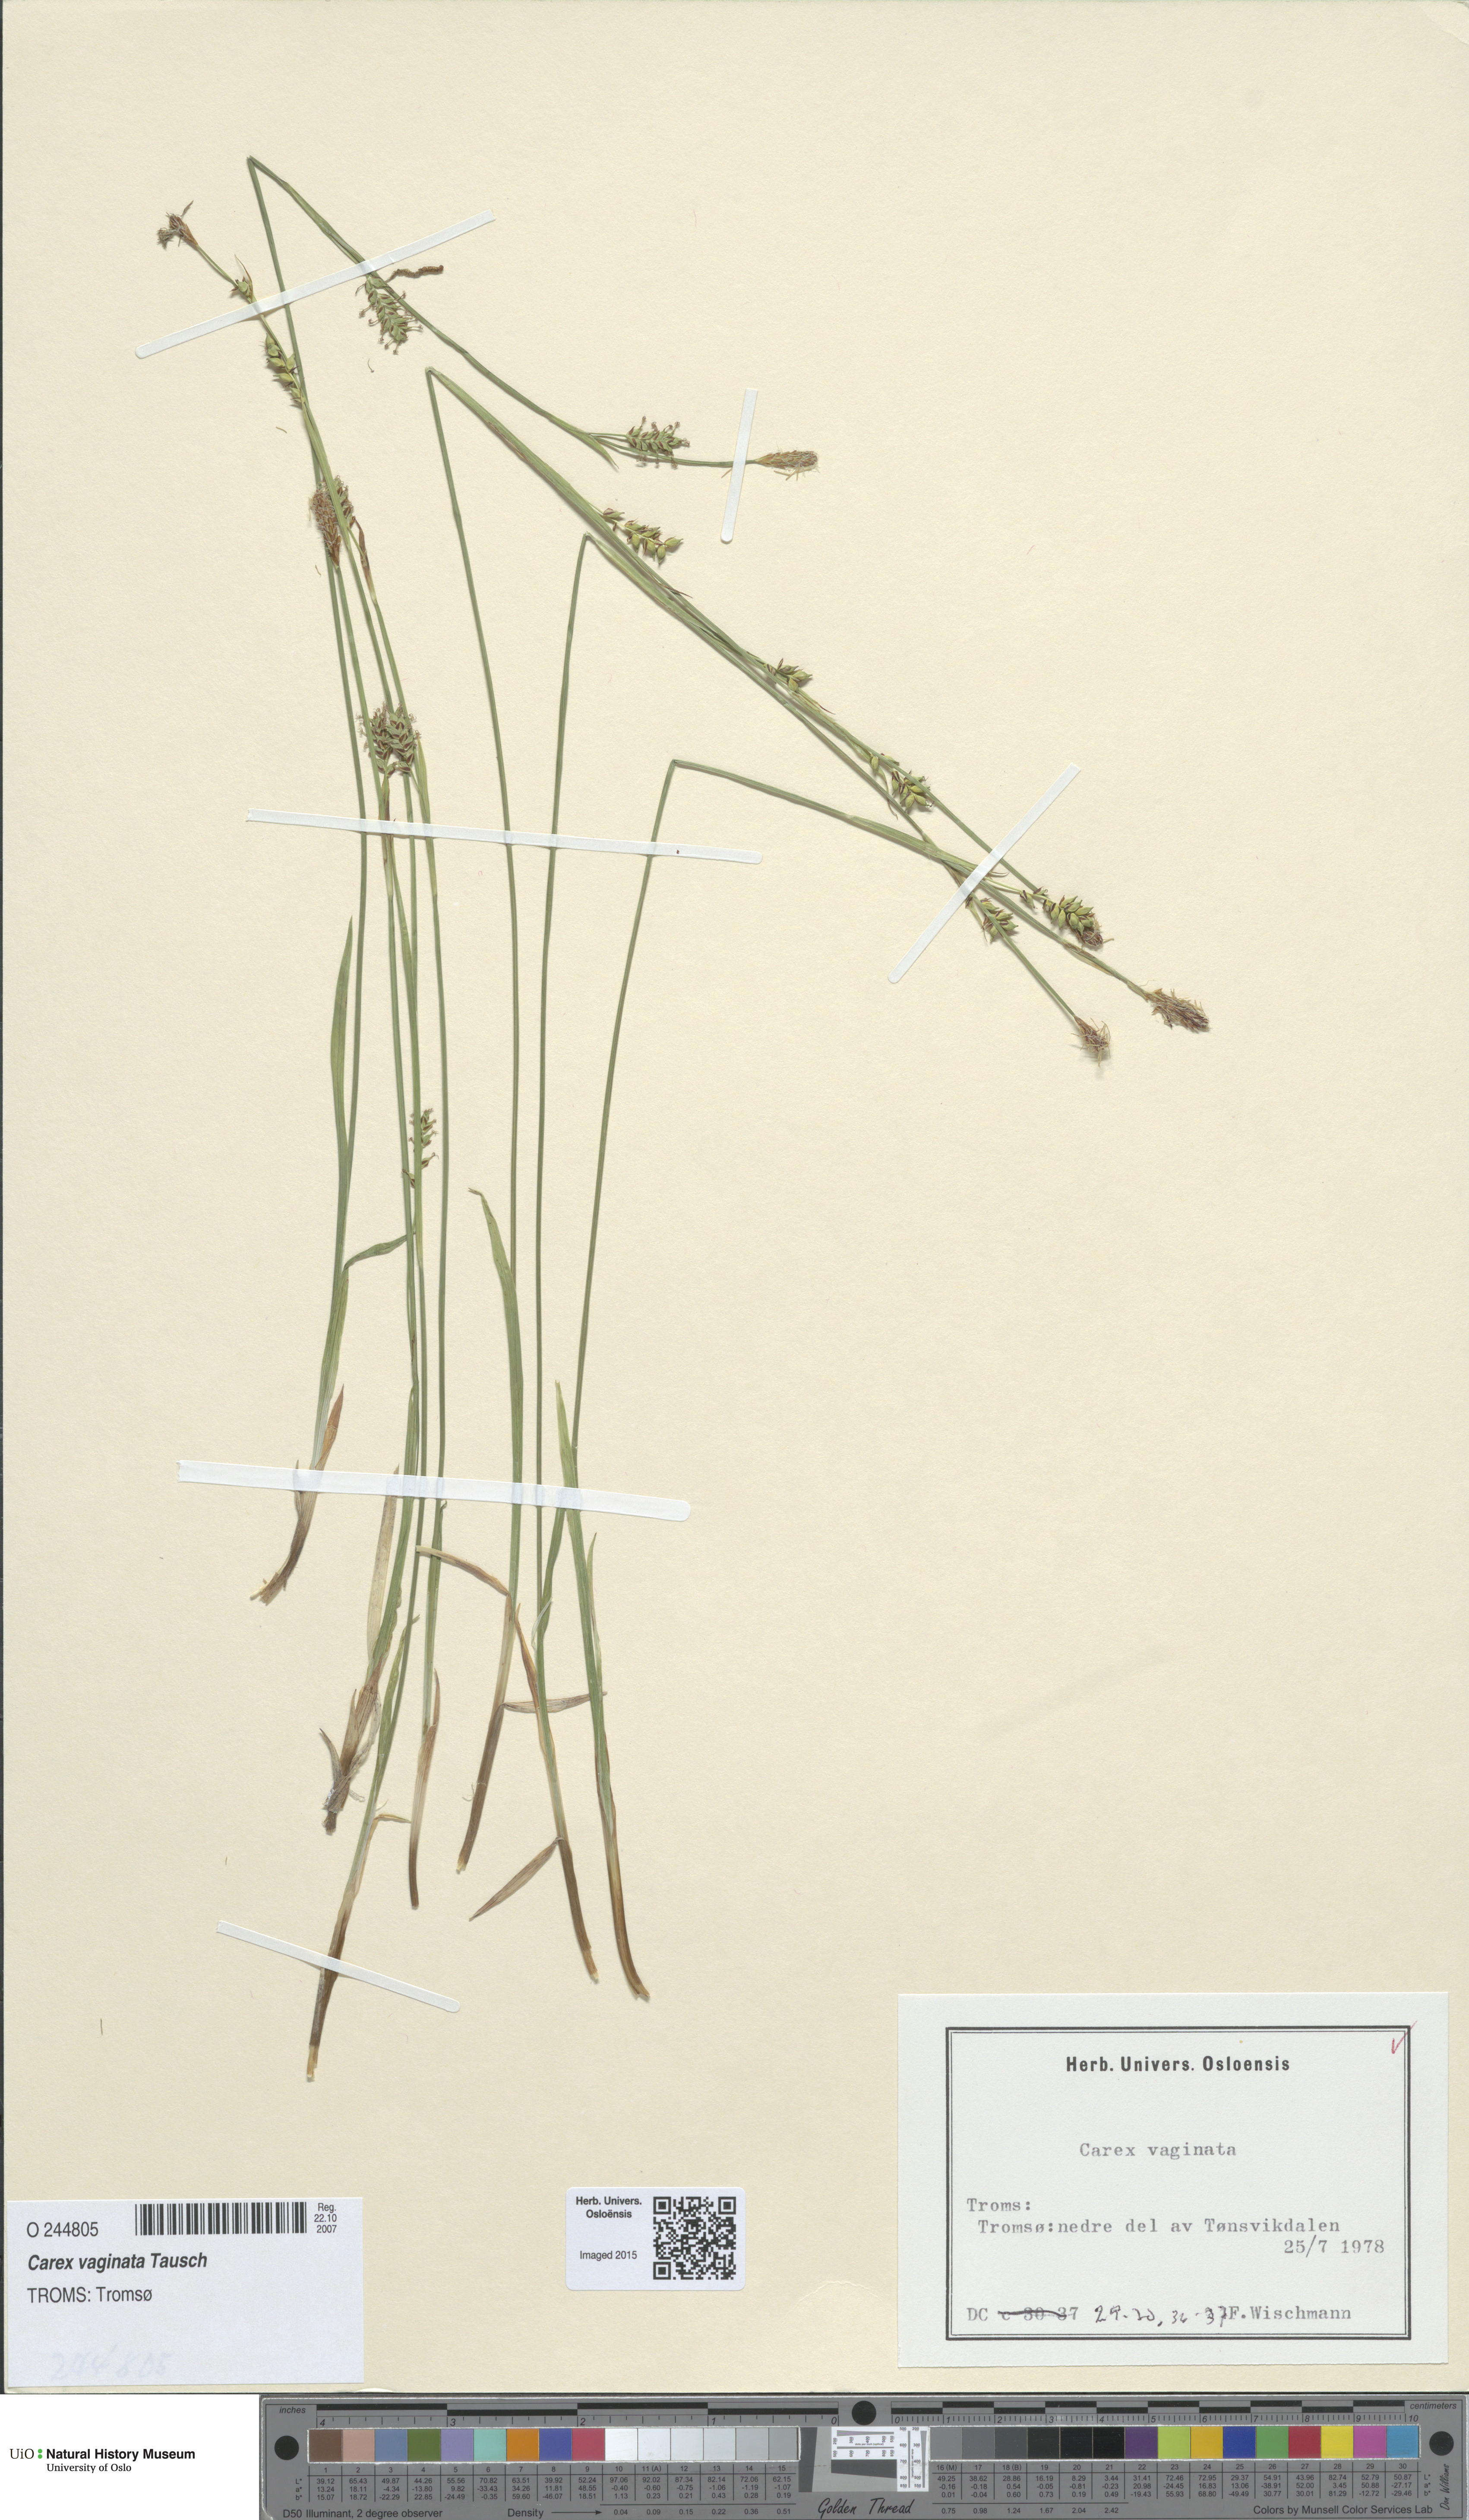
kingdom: Plantae
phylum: Tracheophyta
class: Liliopsida
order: Poales
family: Cyperaceae
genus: Carex
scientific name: Carex vaginata
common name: Sheathed sedge
